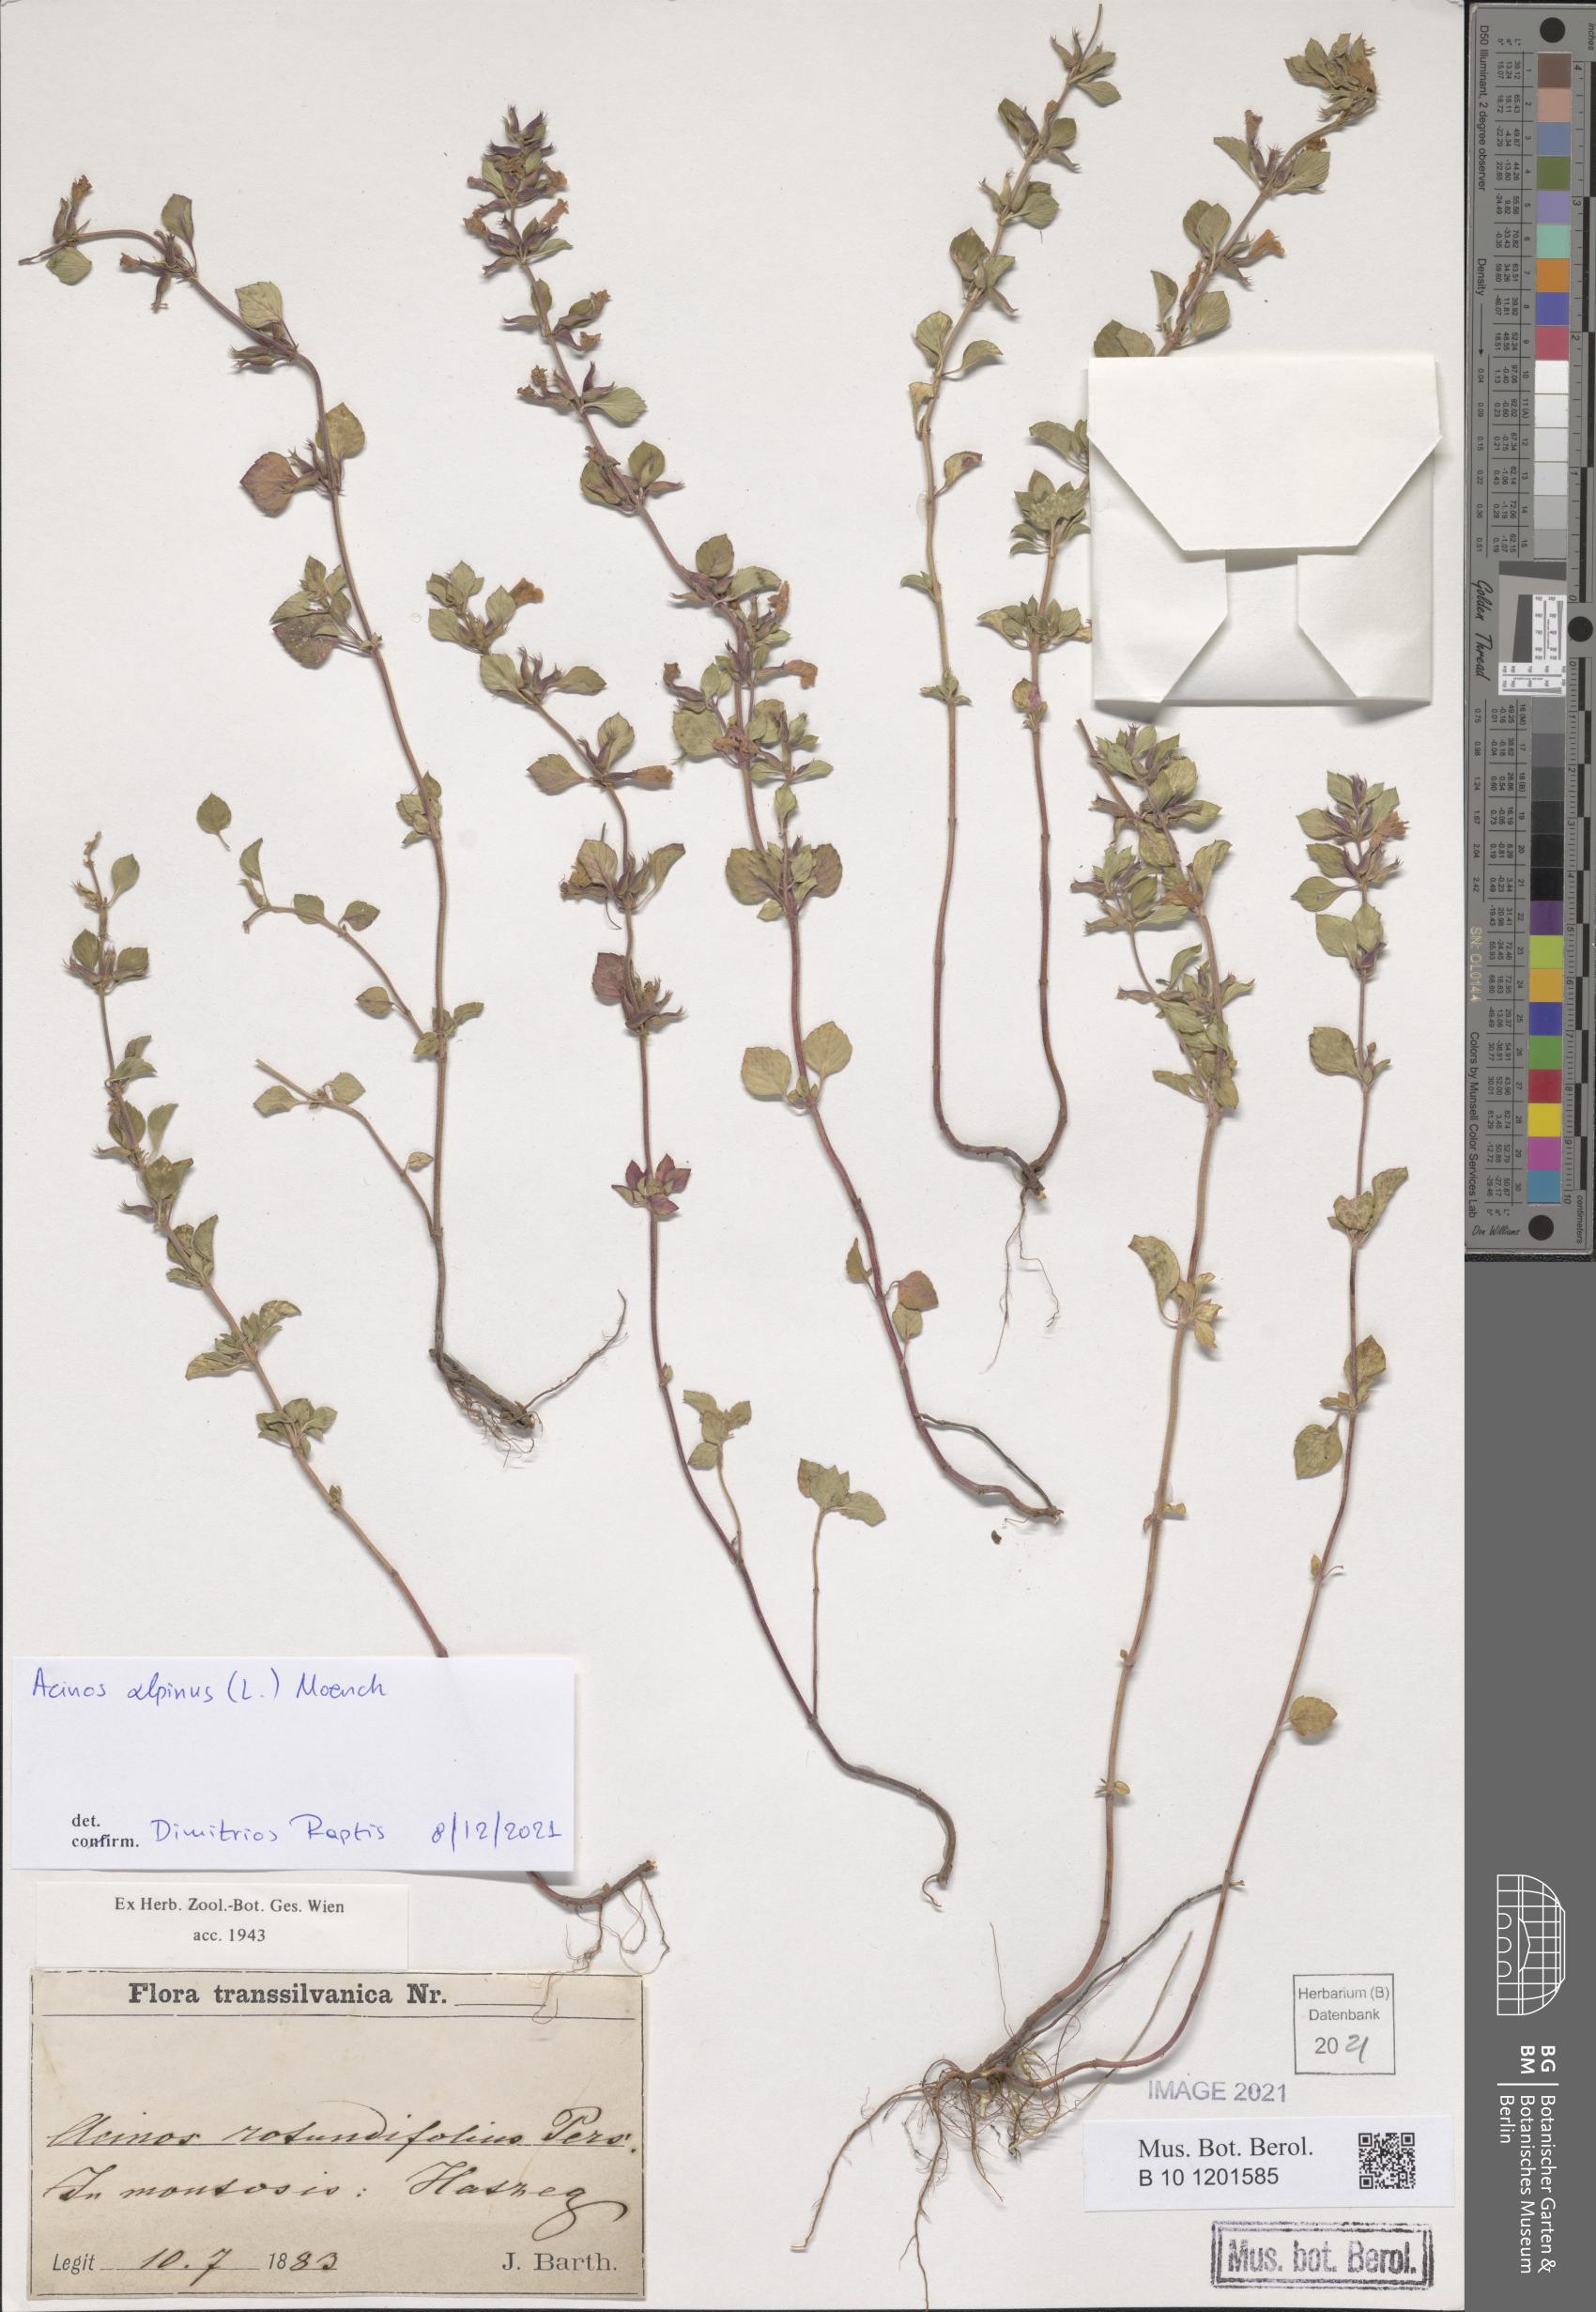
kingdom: Plantae
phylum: Tracheophyta
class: Magnoliopsida
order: Lamiales
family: Lamiaceae
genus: Clinopodium
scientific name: Clinopodium alpinum
